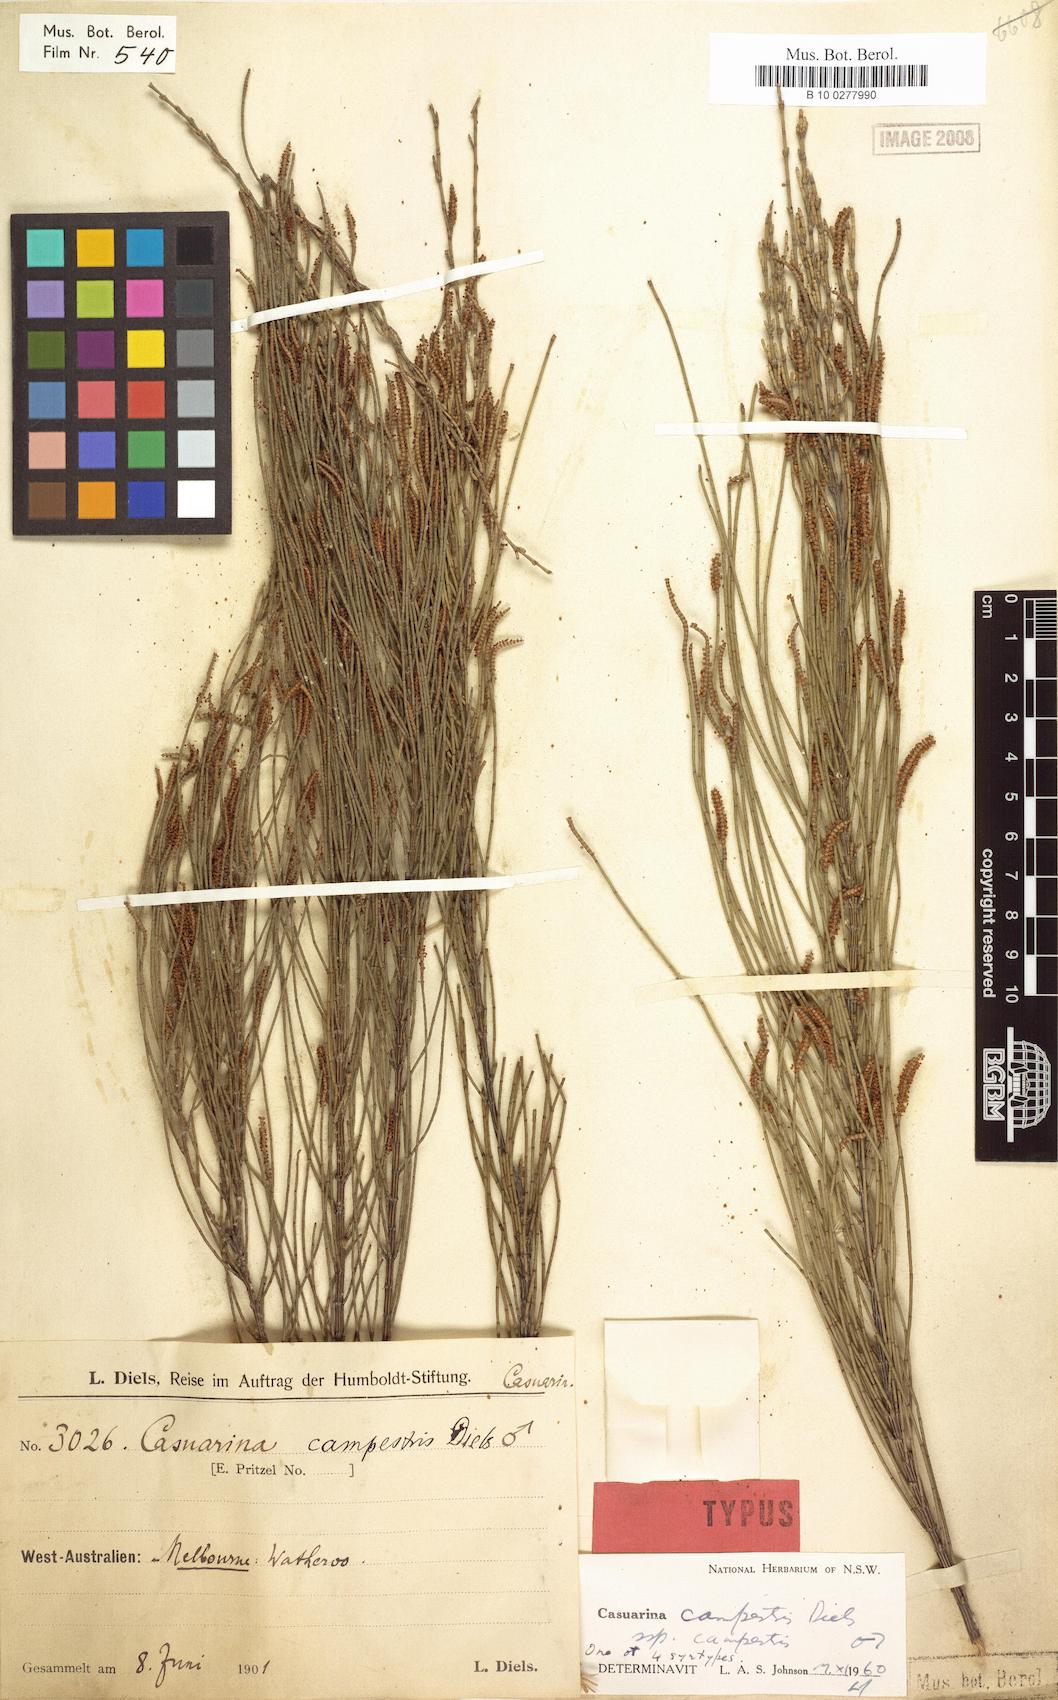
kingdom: Plantae
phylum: Tracheophyta
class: Magnoliopsida
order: Fagales
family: Casuarinaceae
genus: Allocasuarina
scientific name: Allocasuarina campestris
